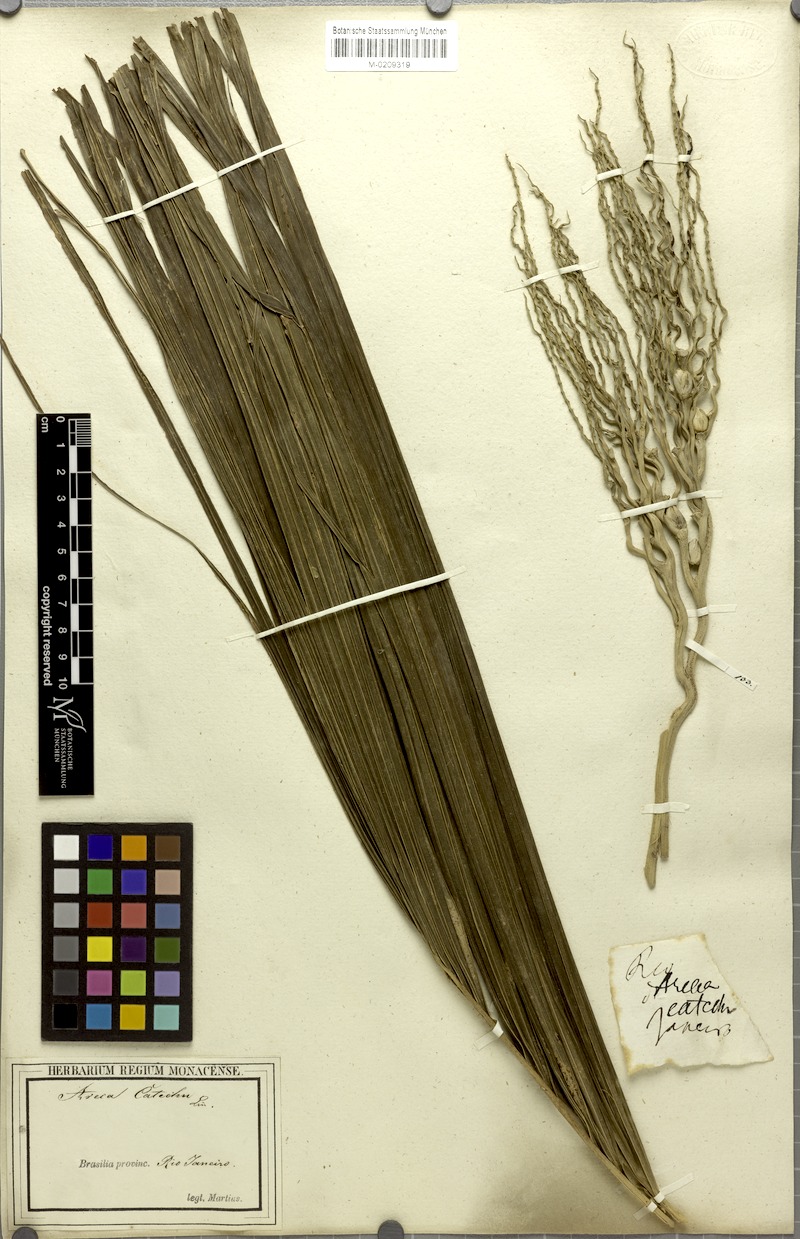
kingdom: Plantae
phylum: Tracheophyta
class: Liliopsida
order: Arecales
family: Arecaceae
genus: Areca
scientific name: Areca catechu
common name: Indian-nut
